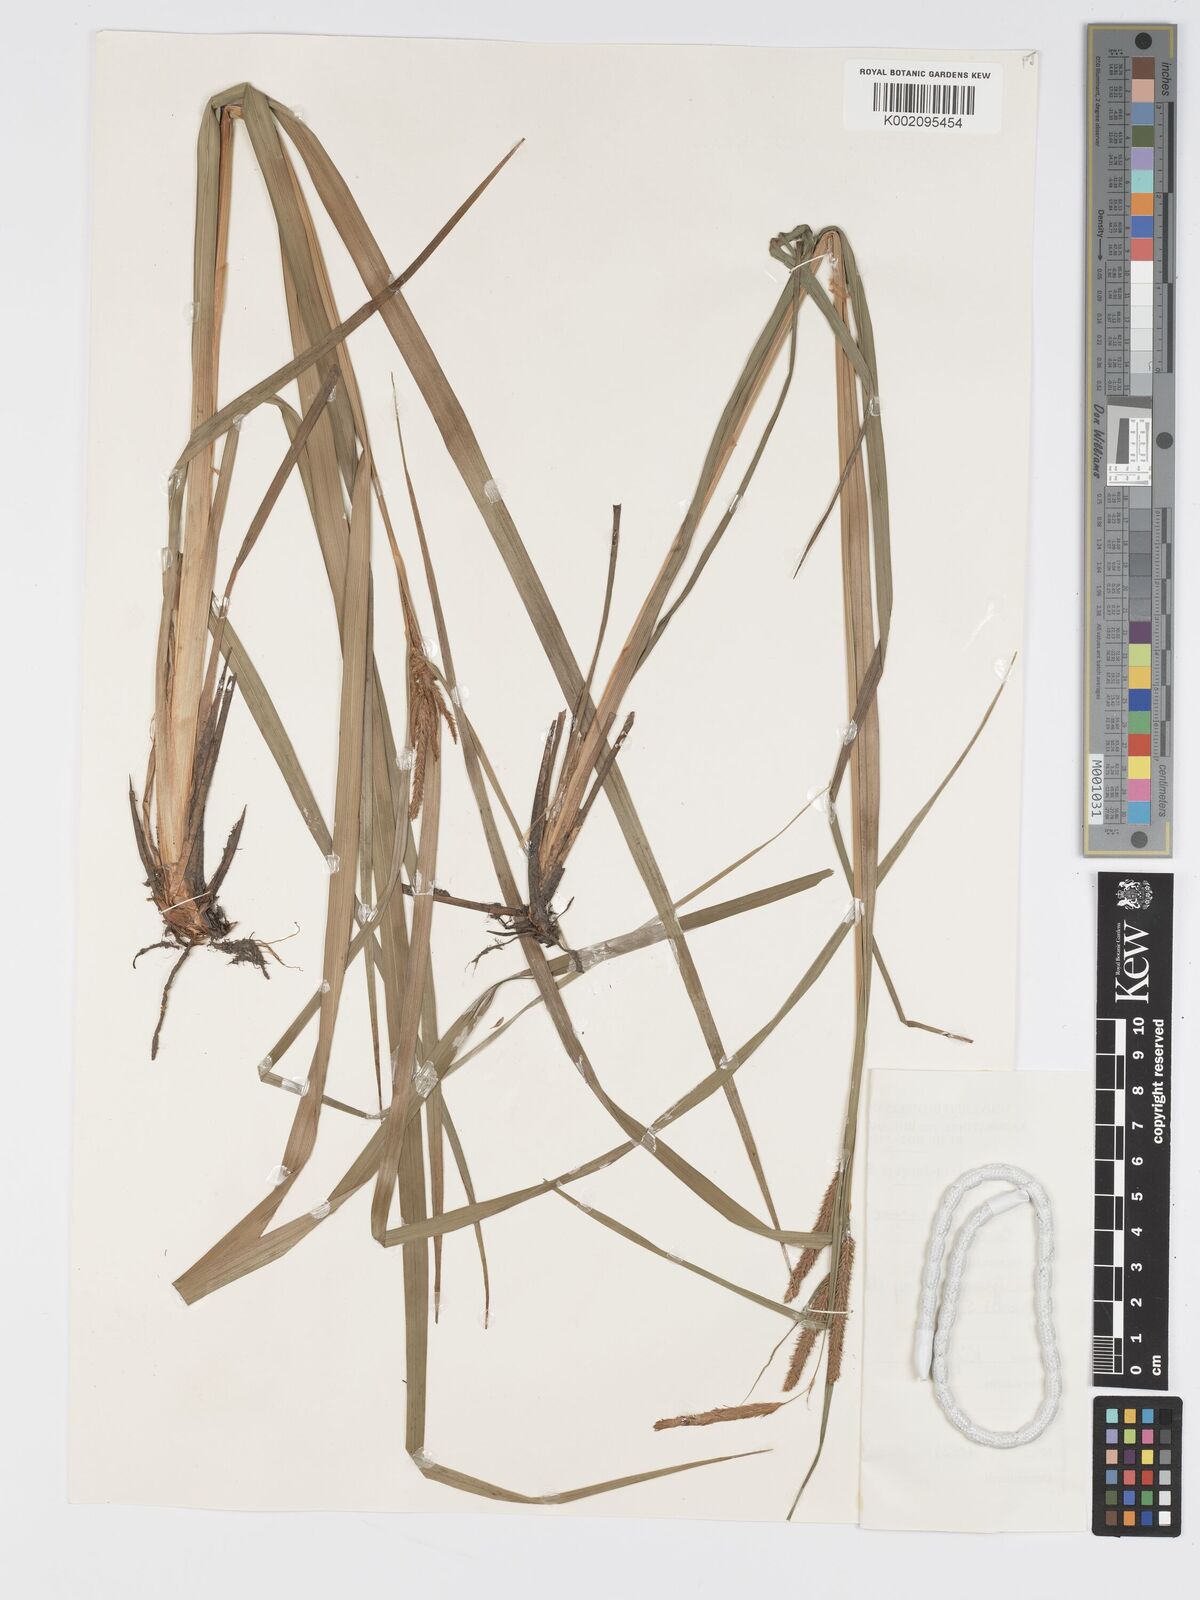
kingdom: Plantae
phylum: Tracheophyta
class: Liliopsida
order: Poales
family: Cyperaceae
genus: Carex
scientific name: Carex
